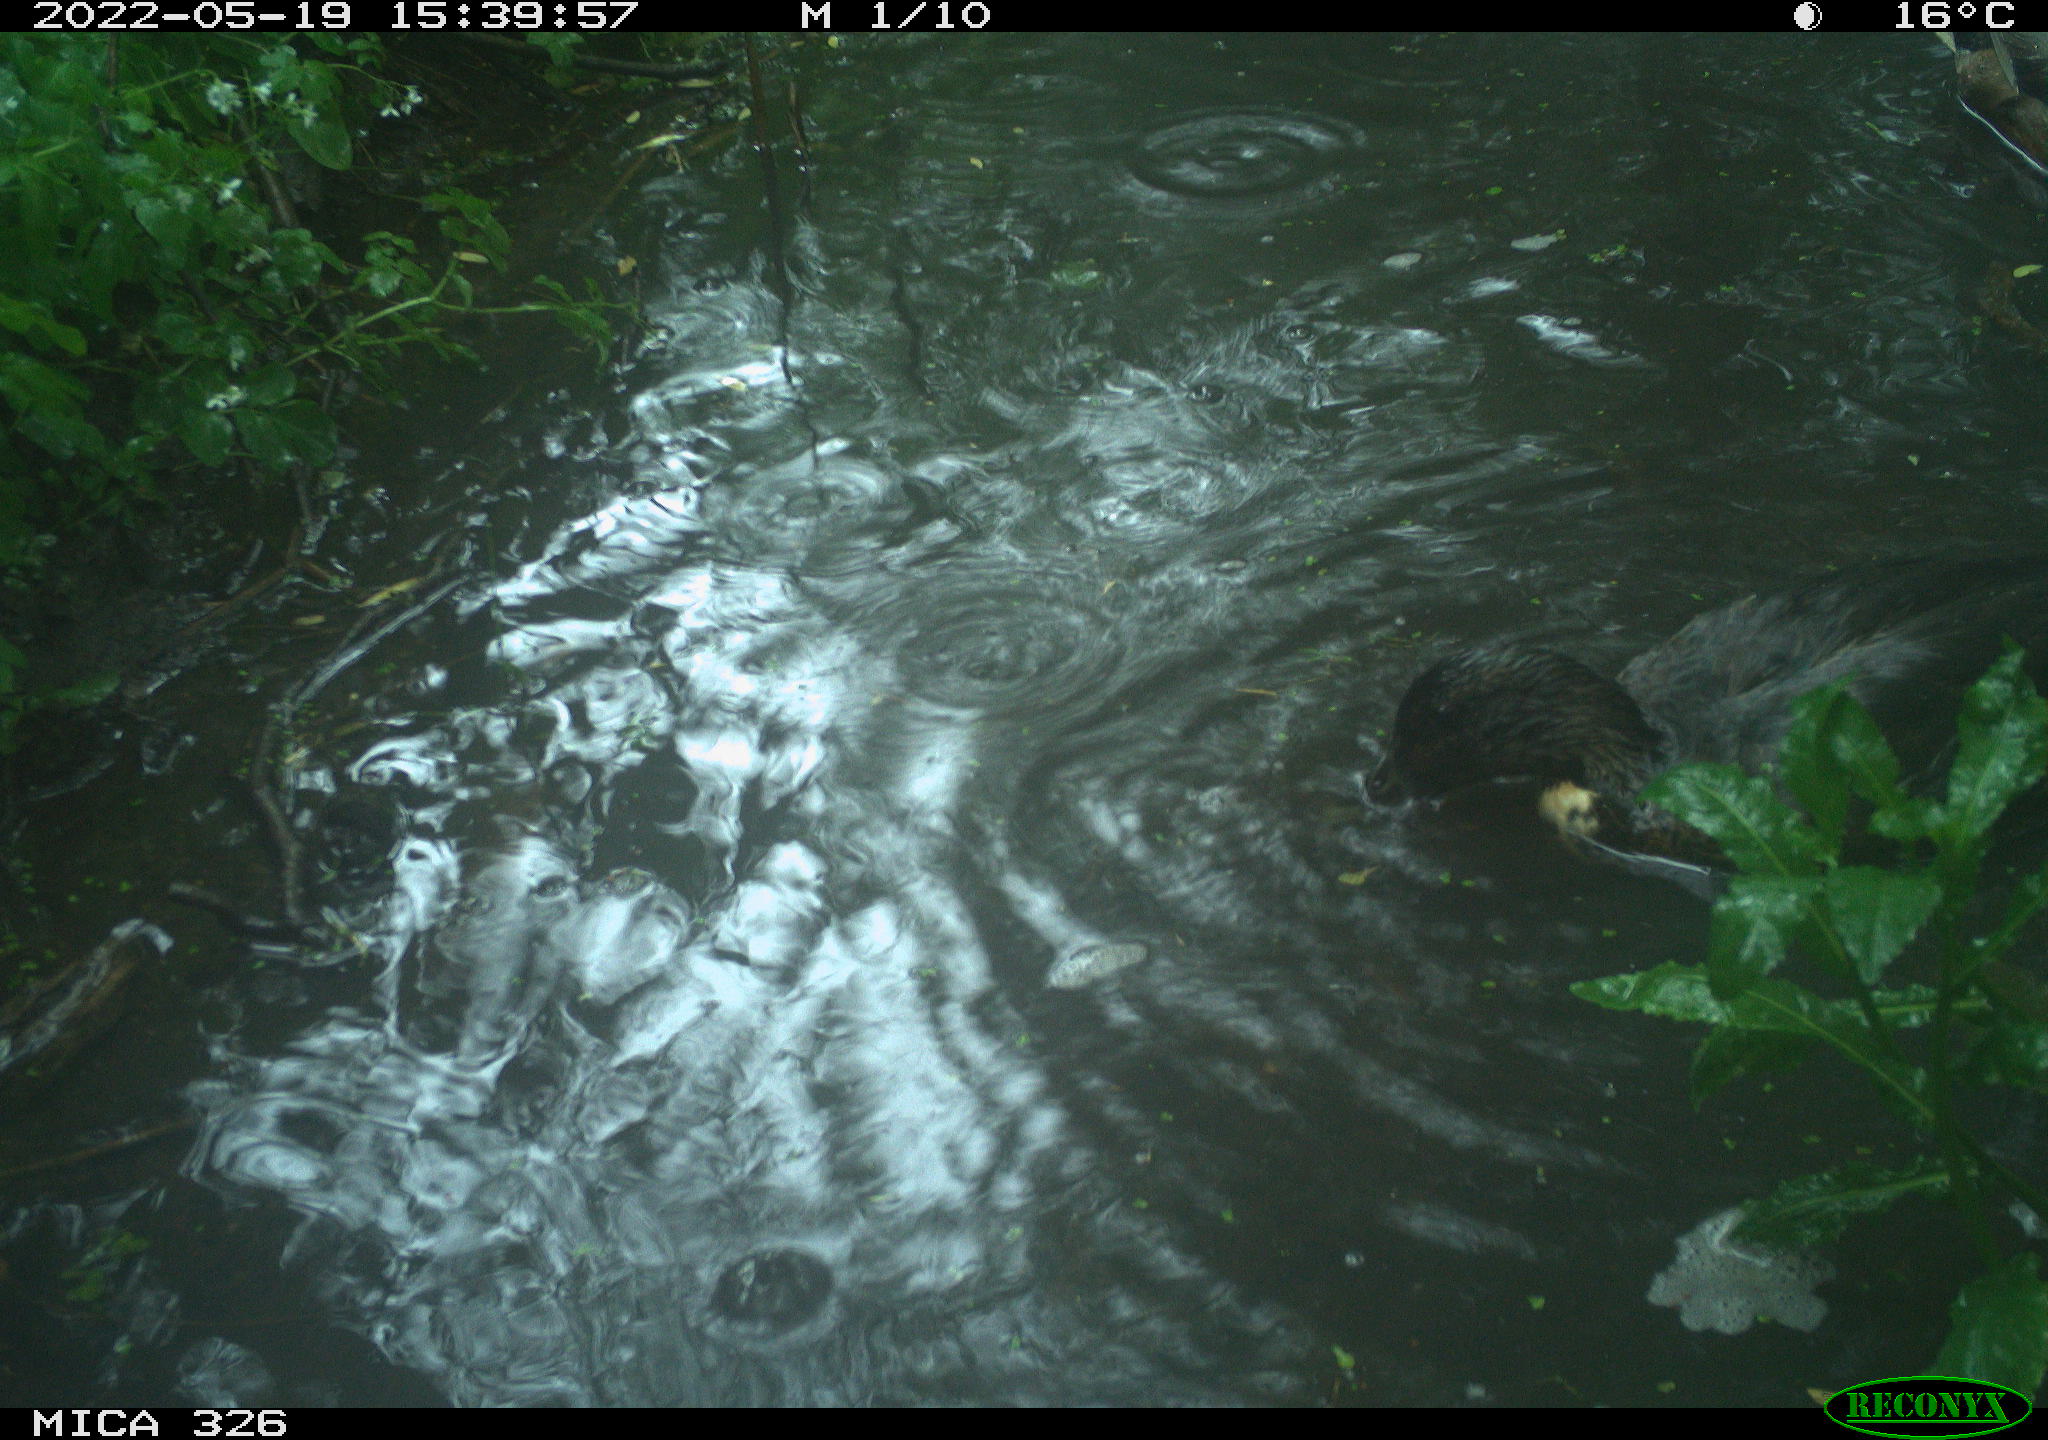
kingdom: Animalia
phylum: Chordata
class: Aves
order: Anseriformes
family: Anatidae
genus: Anas
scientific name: Anas platyrhynchos
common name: Mallard
